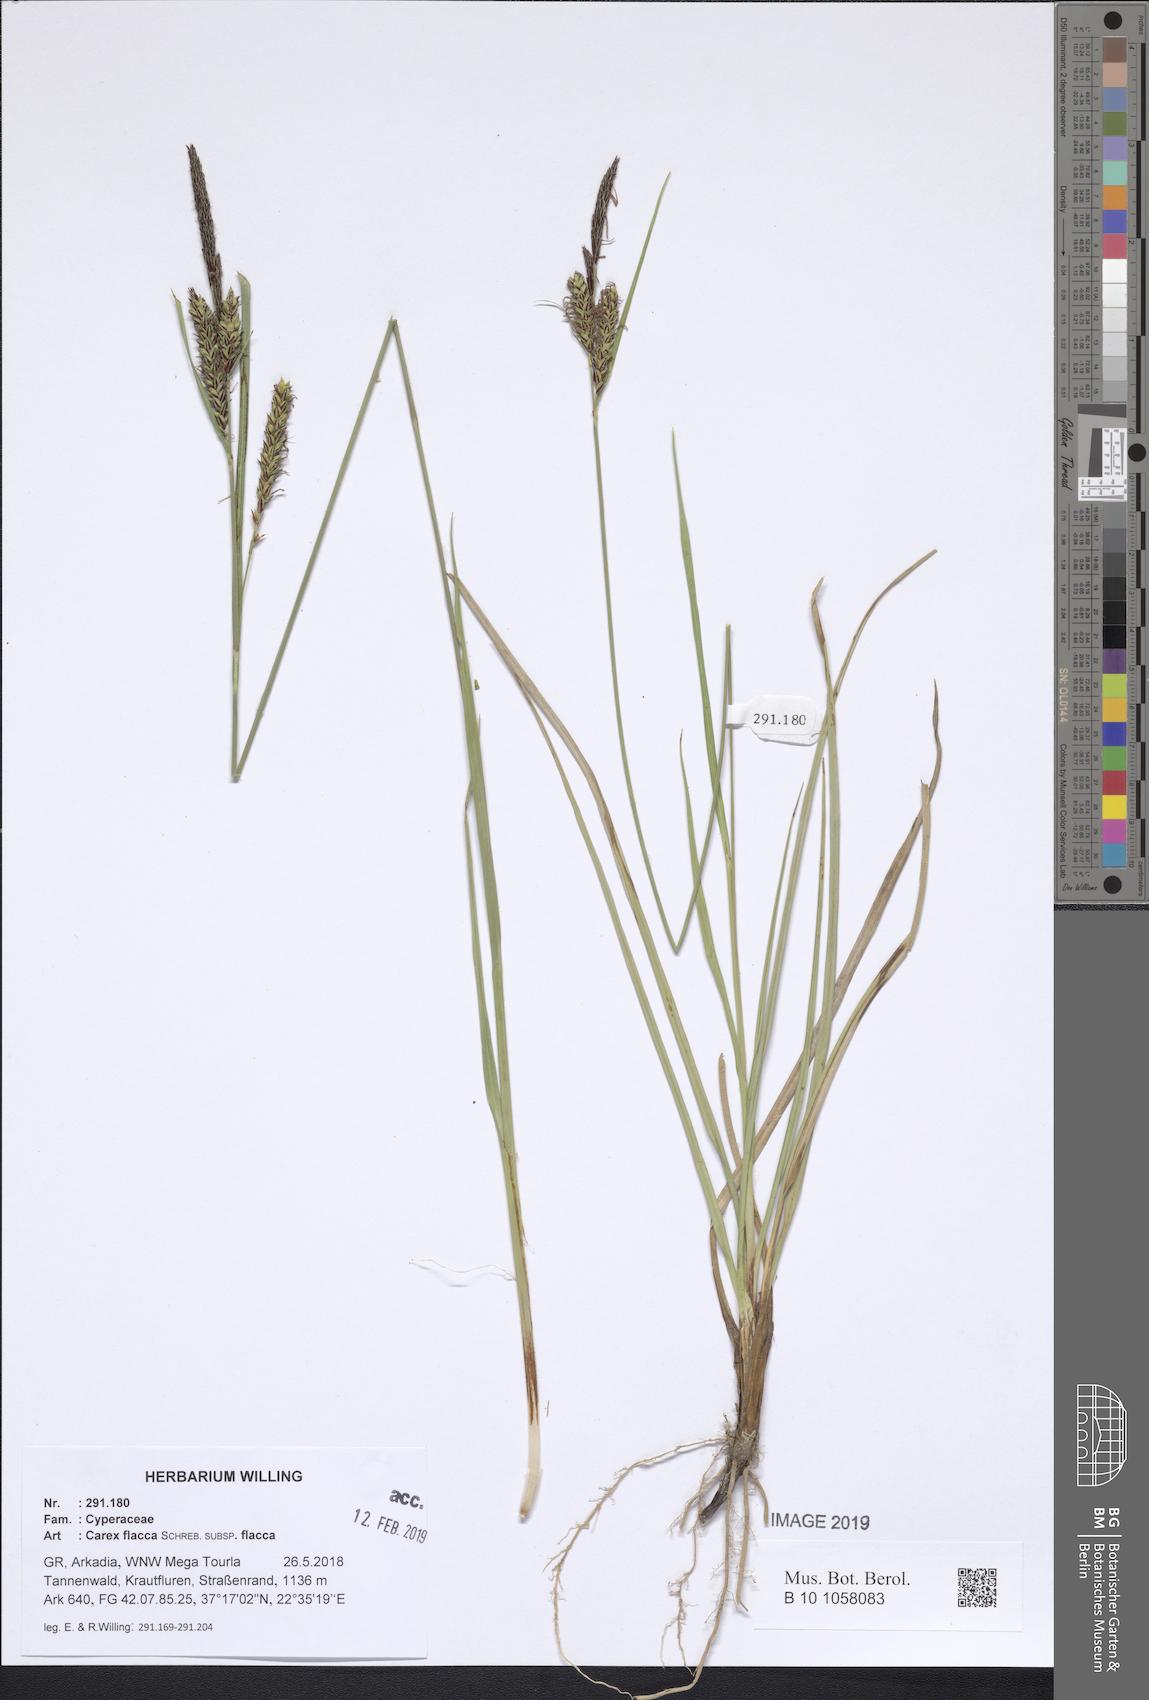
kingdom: Plantae
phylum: Tracheophyta
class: Liliopsida
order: Poales
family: Cyperaceae
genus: Carex
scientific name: Carex flacca
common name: Glaucous sedge
